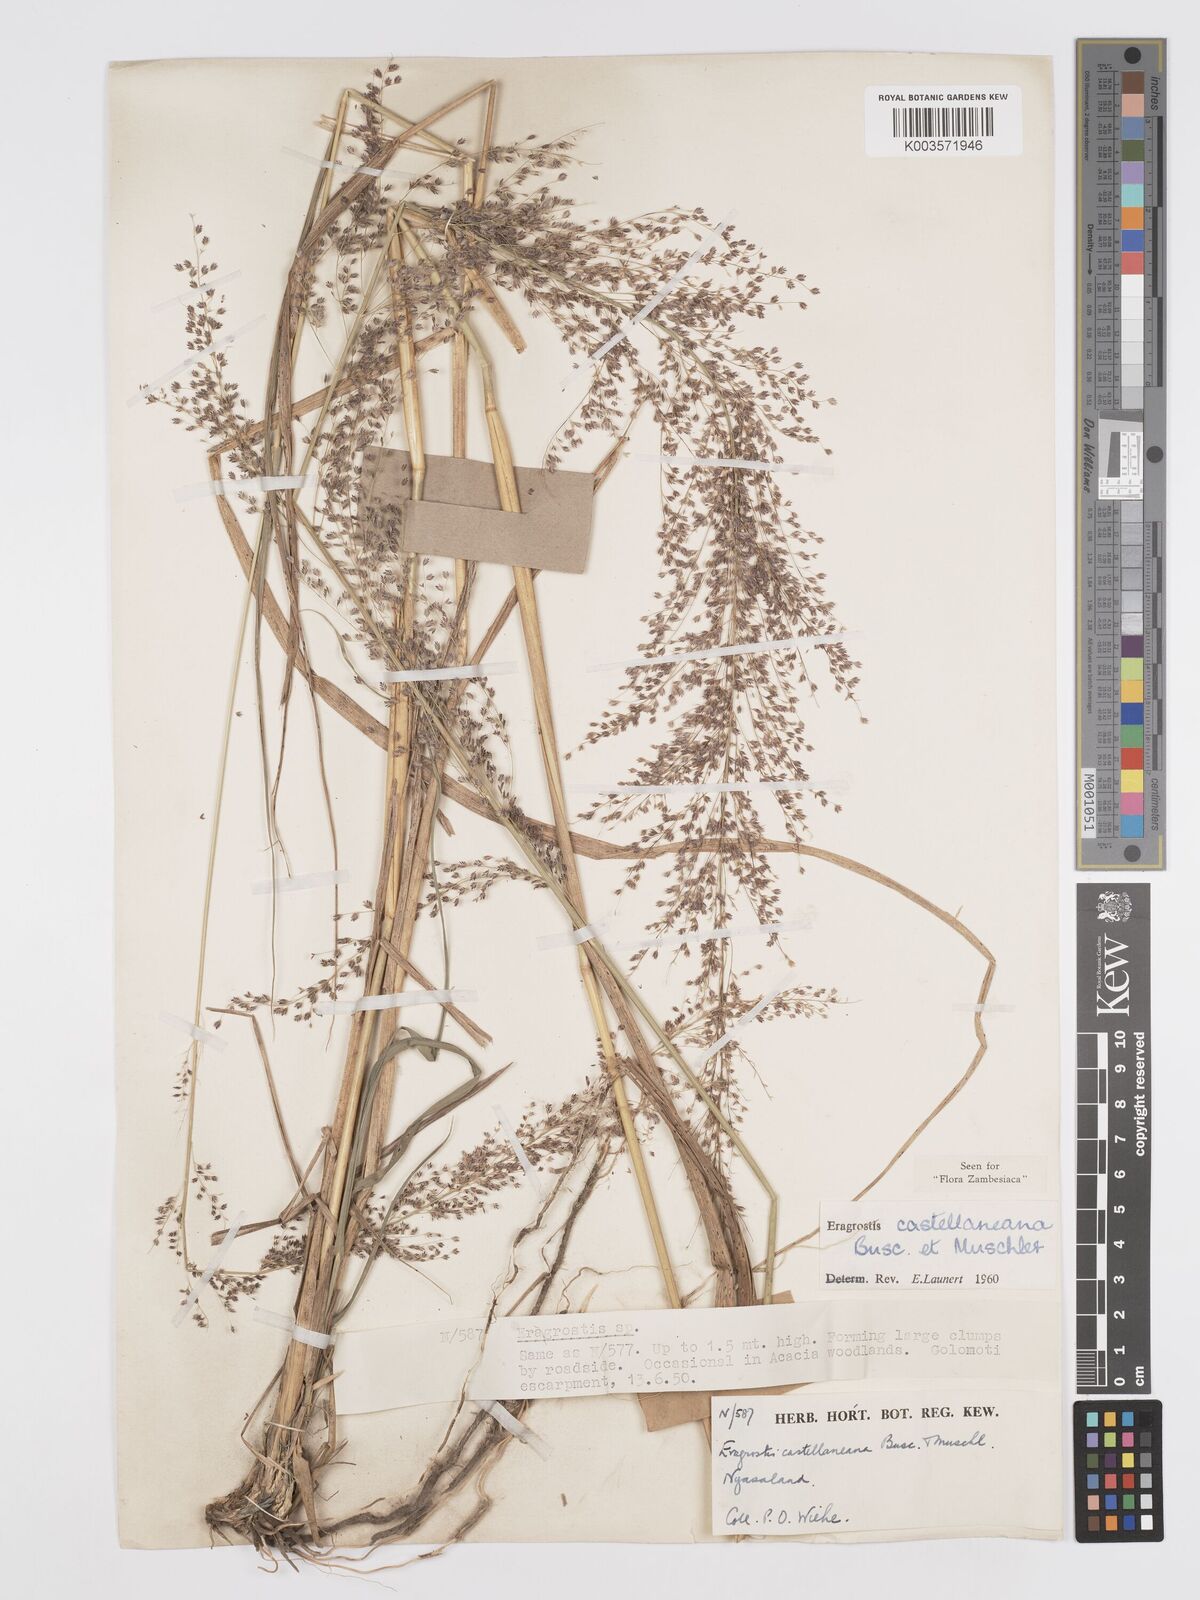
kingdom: Plantae
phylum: Tracheophyta
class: Liliopsida
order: Poales
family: Poaceae
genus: Eragrostis
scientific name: Eragrostis castellaneana
